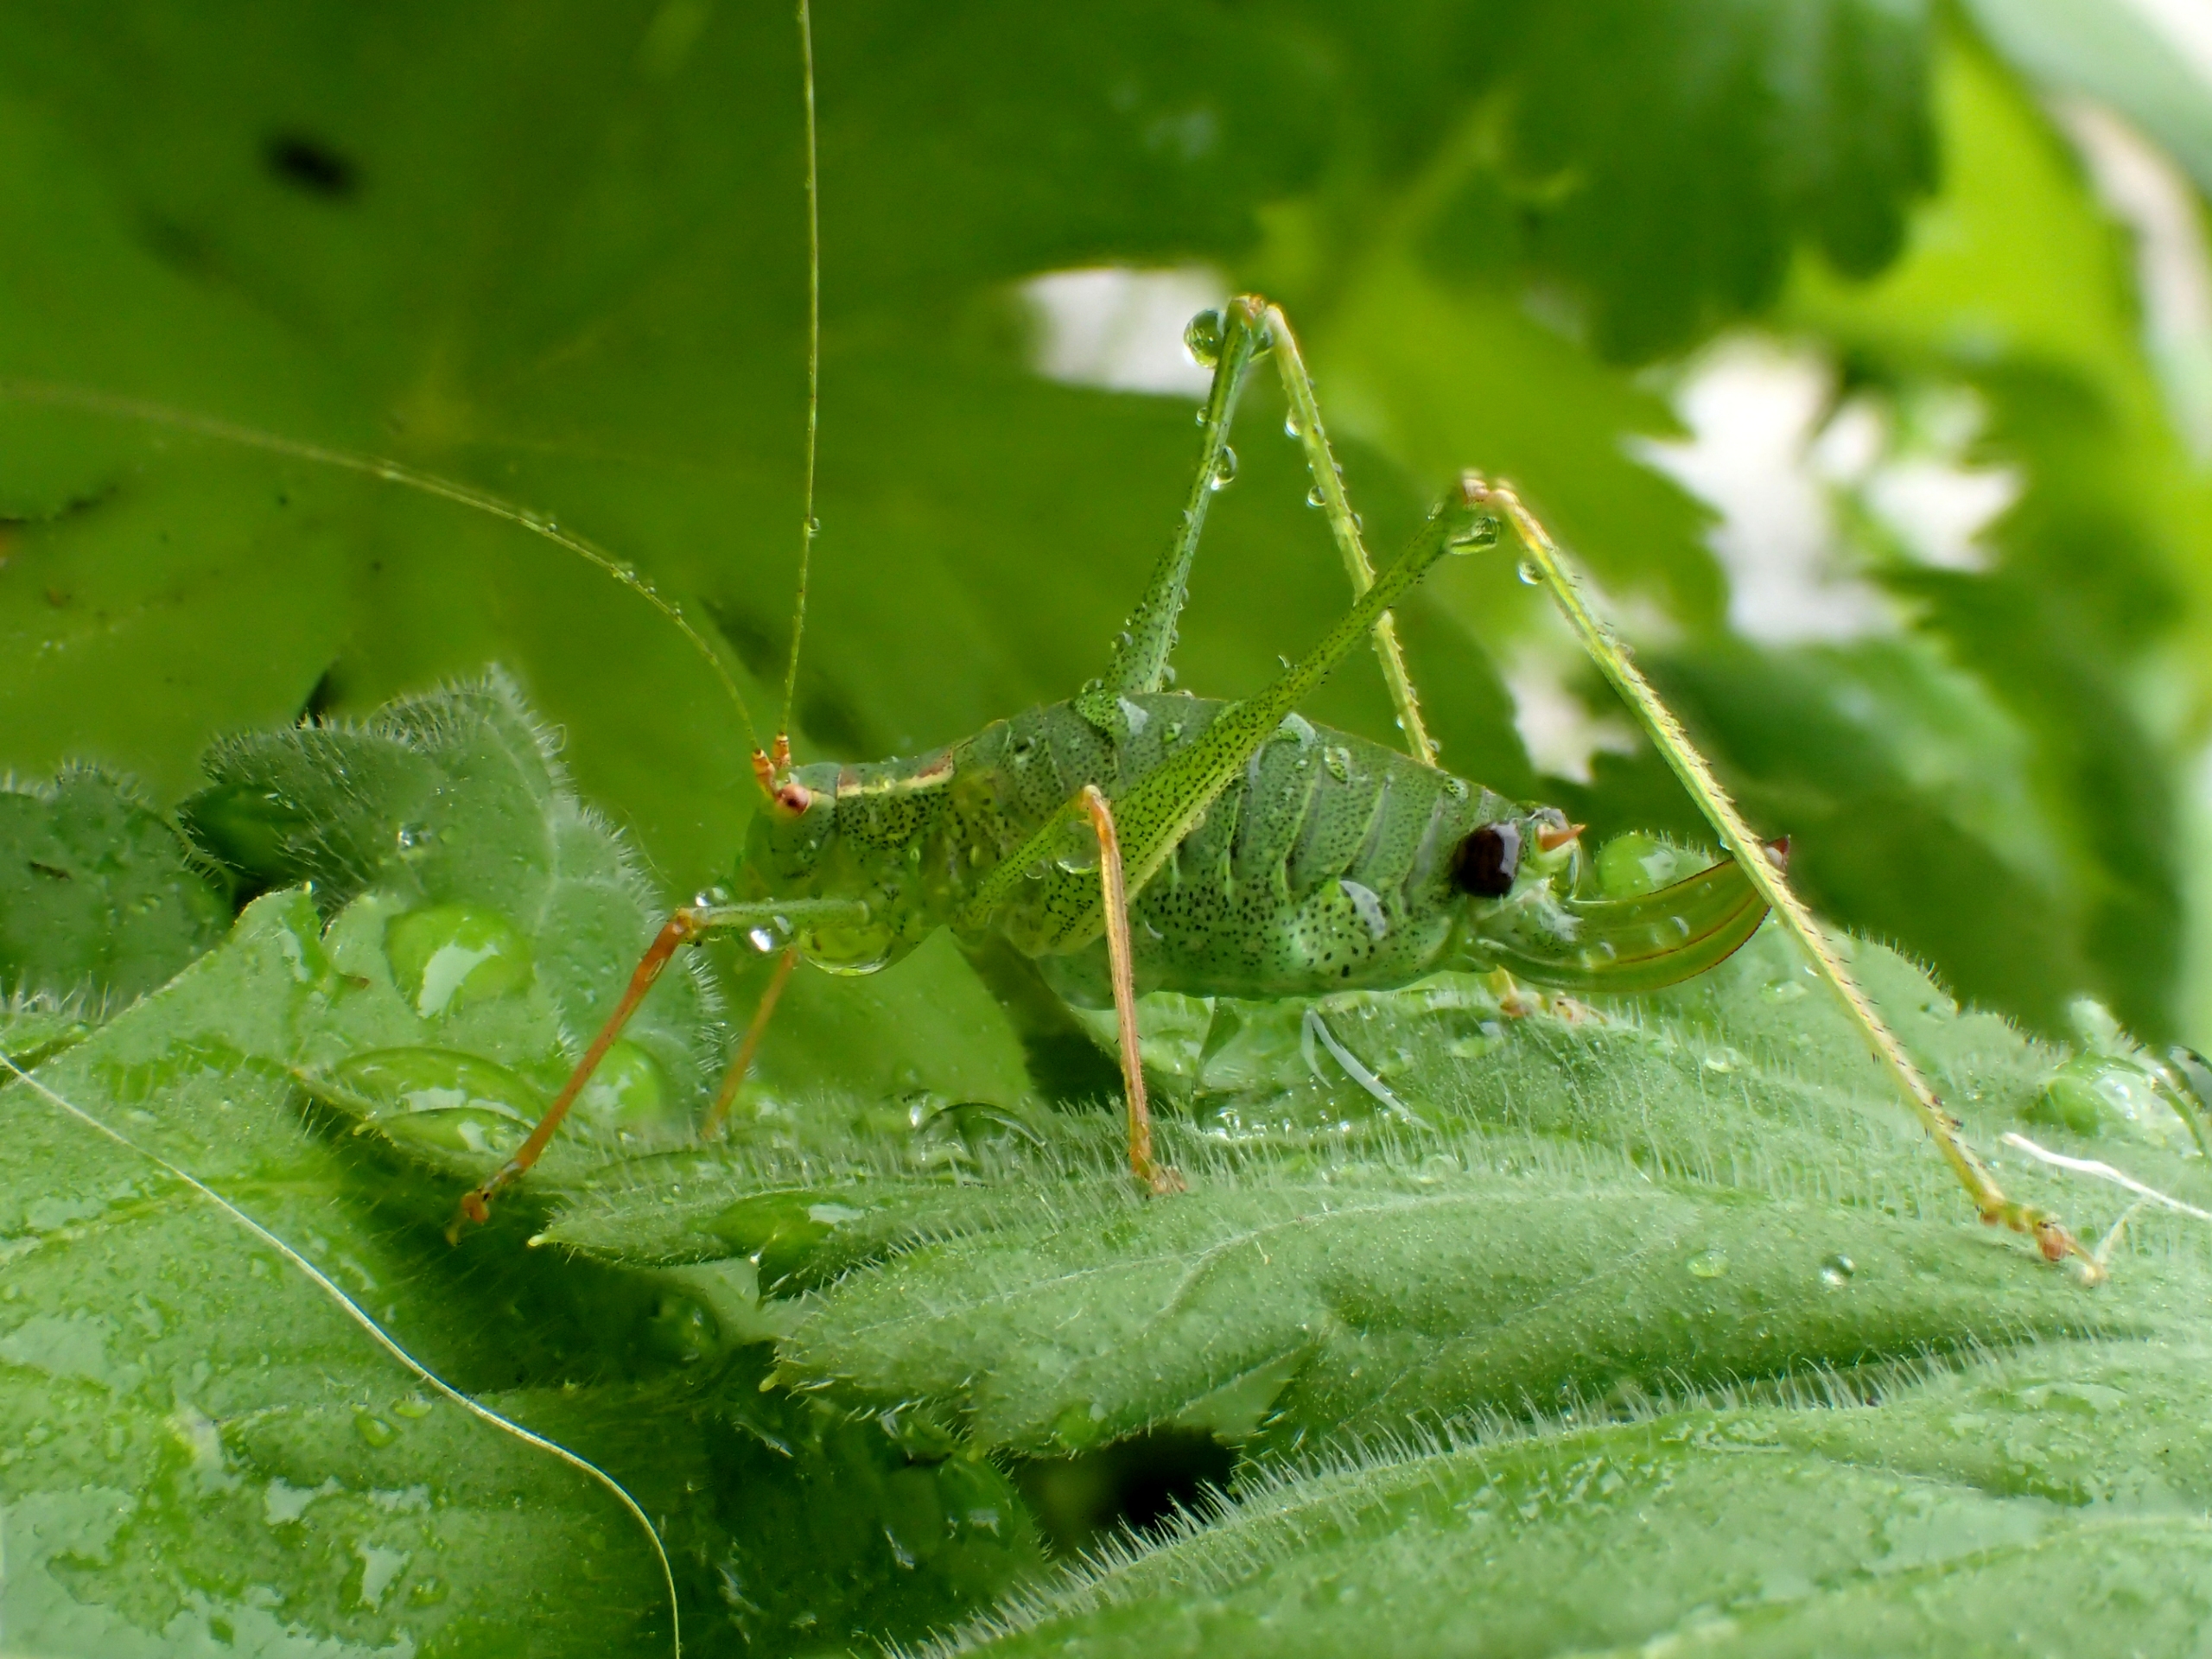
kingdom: Animalia
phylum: Arthropoda
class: Insecta
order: Orthoptera
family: Tettigoniidae
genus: Leptophyes
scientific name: Leptophyes punctatissima
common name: Krumknivgræshoppe
